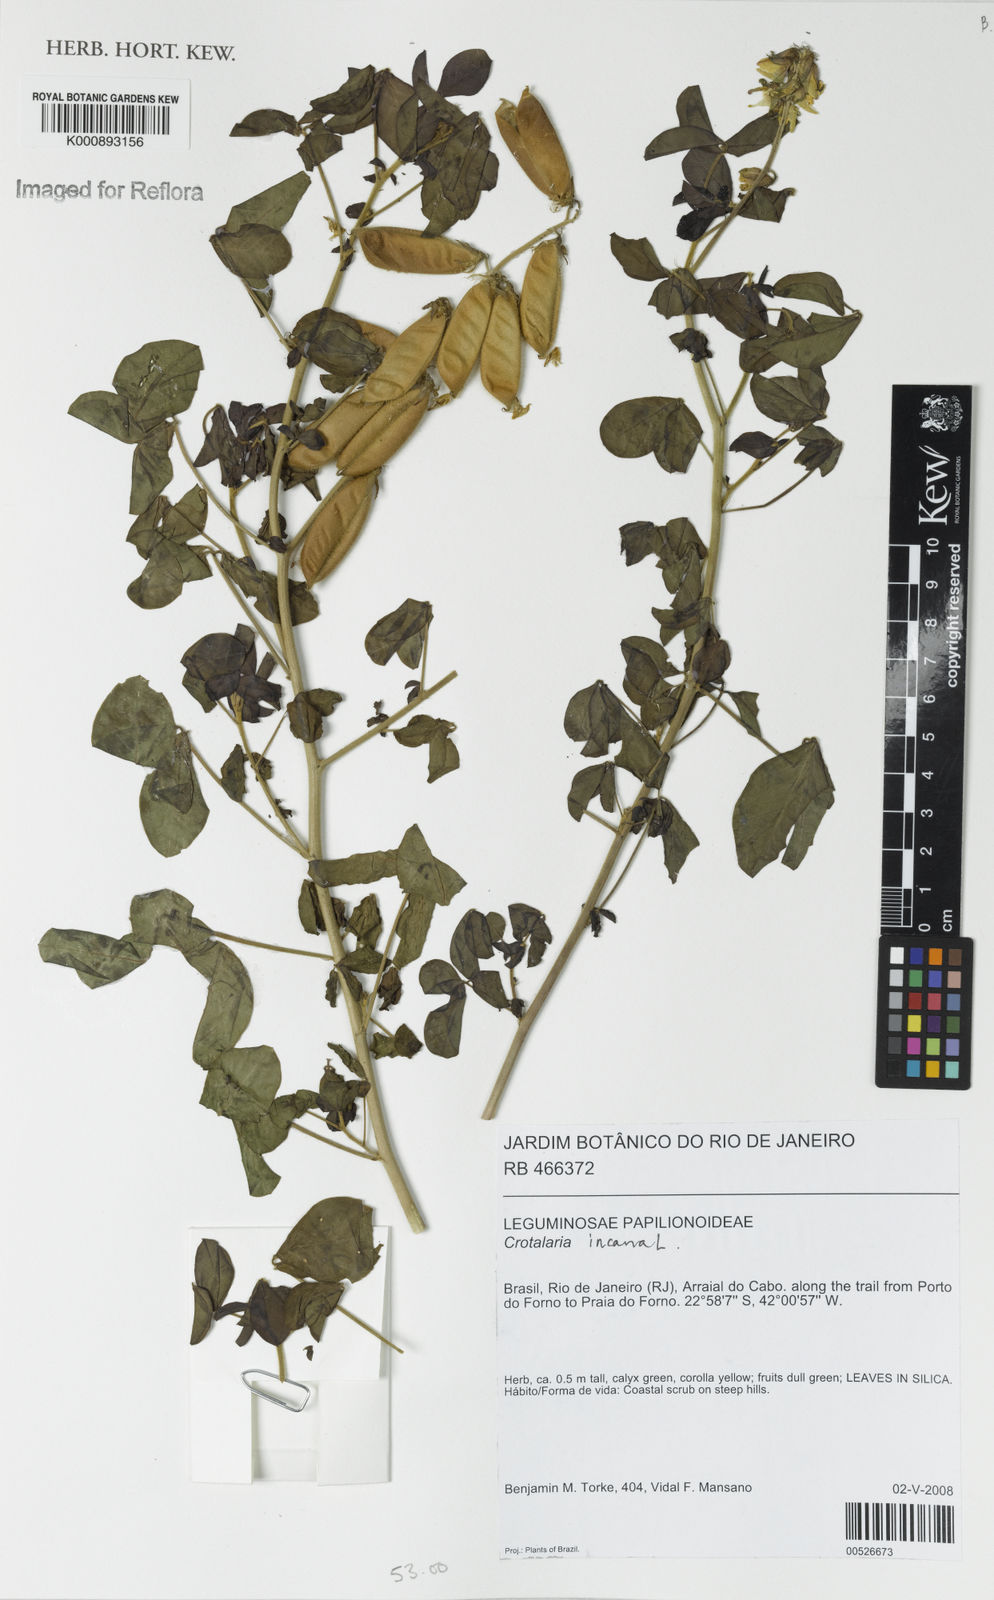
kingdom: Plantae
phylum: Tracheophyta
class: Magnoliopsida
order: Fabales
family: Fabaceae
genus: Crotalaria
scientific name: Crotalaria incana
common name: Shakeshake
